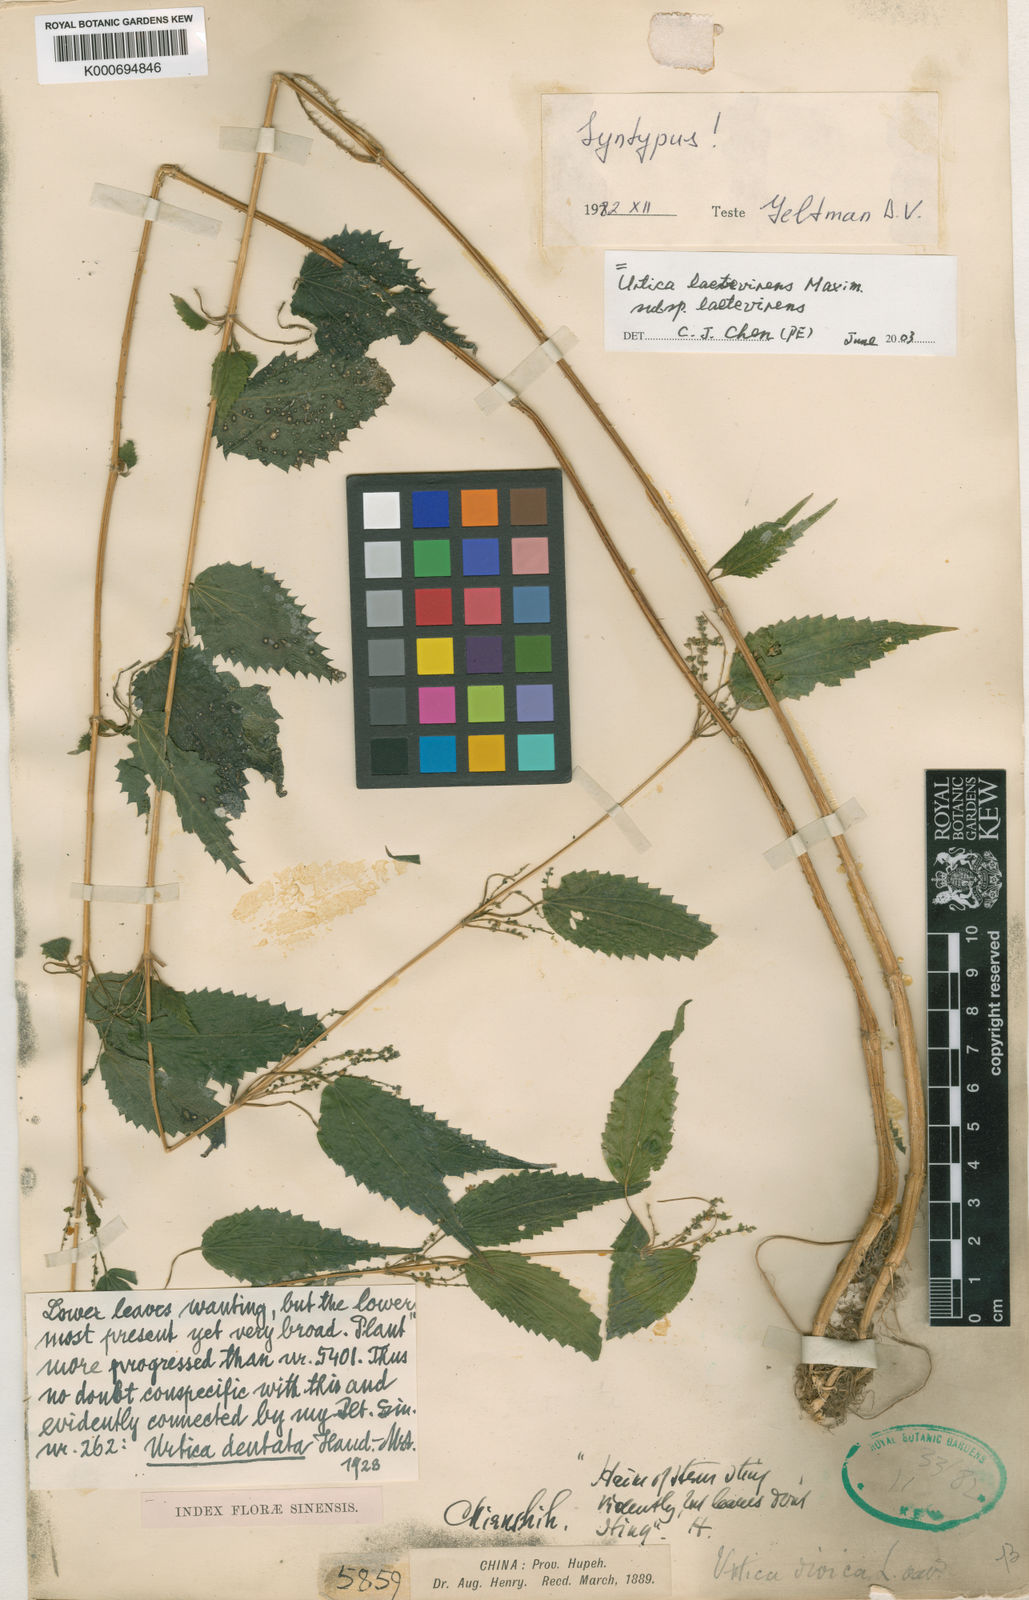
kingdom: Plantae
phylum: Tracheophyta
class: Magnoliopsida
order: Rosales
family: Urticaceae
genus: Urtica
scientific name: Urtica thunbergiana
